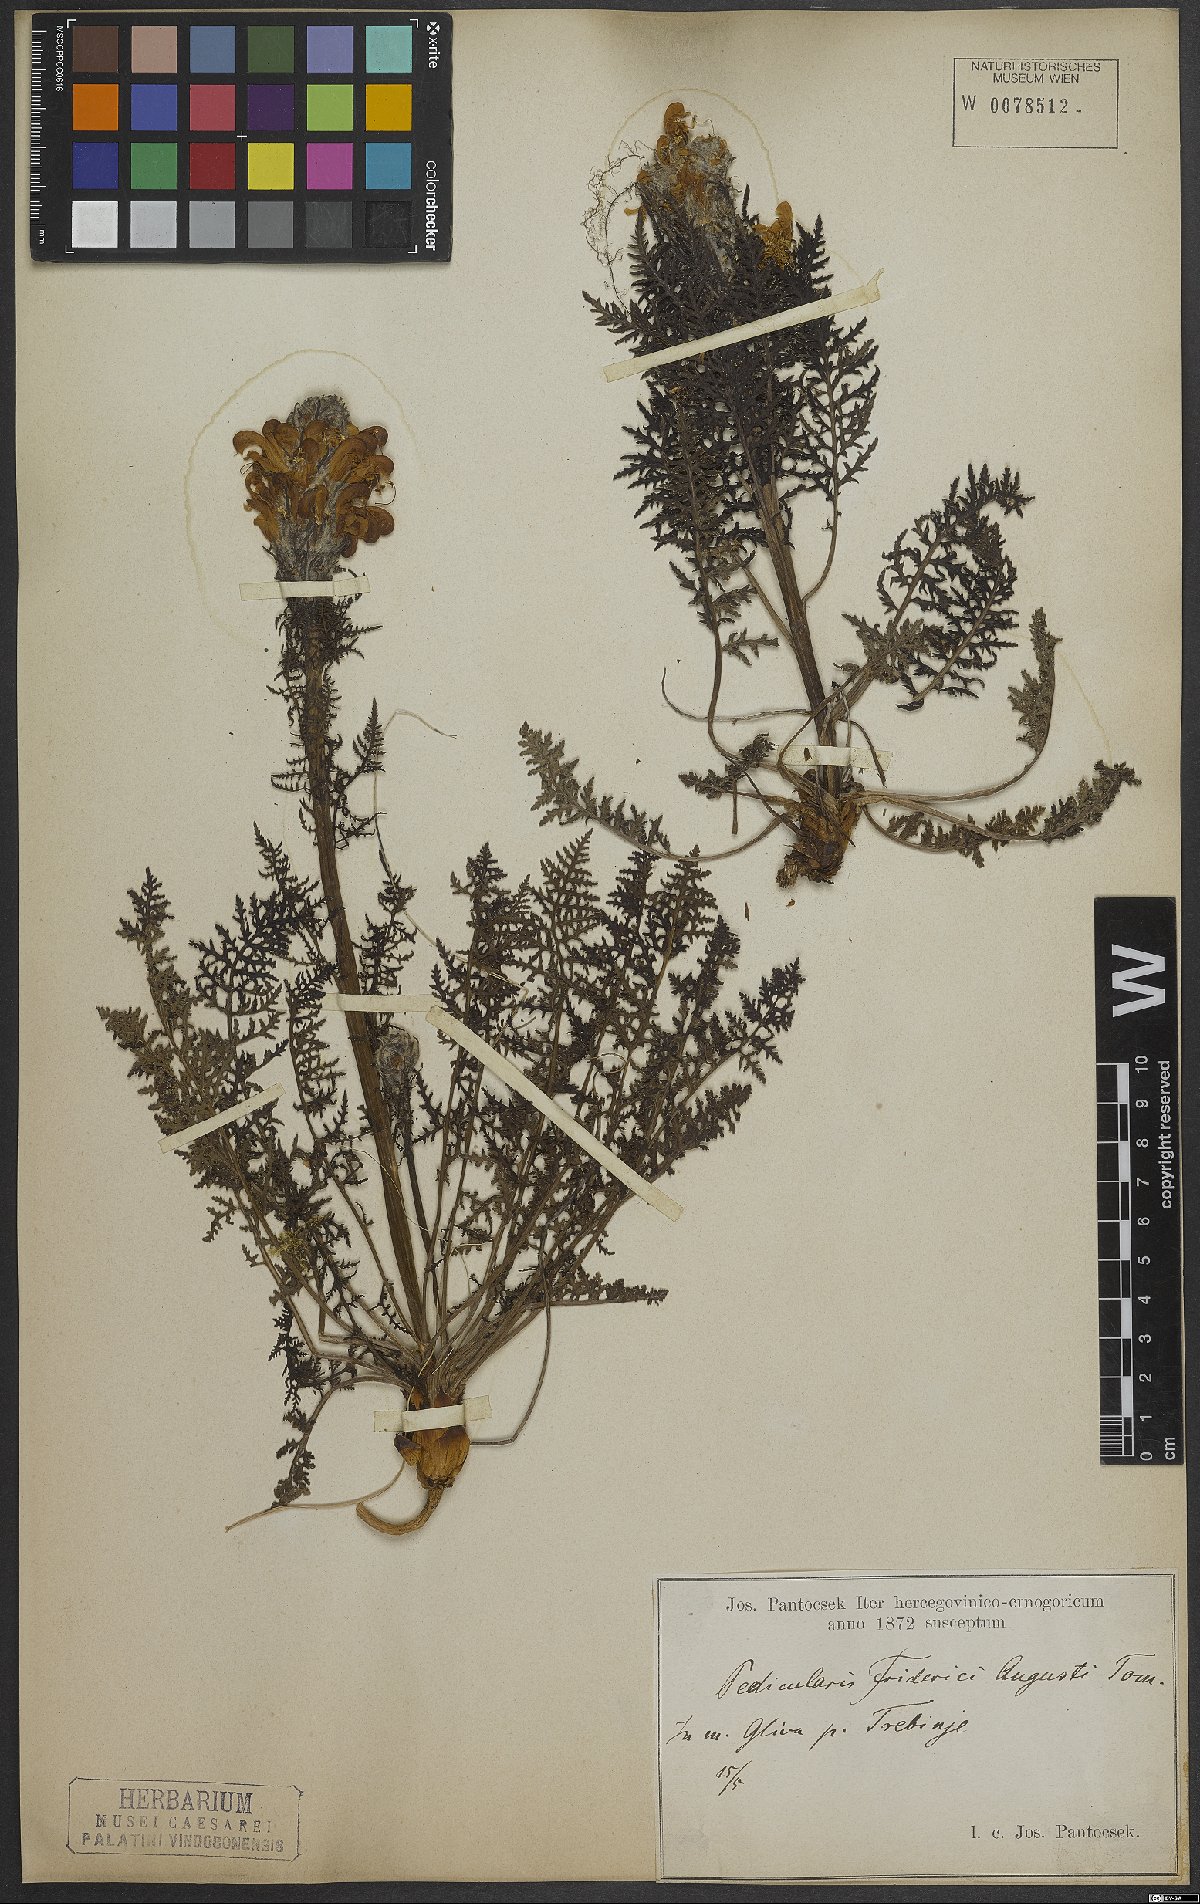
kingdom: Plantae
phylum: Tracheophyta
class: Magnoliopsida
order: Lamiales
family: Orobanchaceae
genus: Pedicularis
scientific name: Pedicularis friderici-augusti
